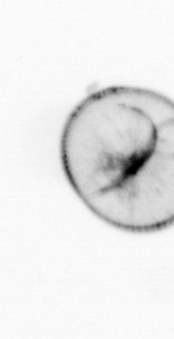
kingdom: Chromista
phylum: Myzozoa
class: Dinophyceae
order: Noctilucales
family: Noctilucaceae
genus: Noctiluca
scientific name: Noctiluca scintillans
